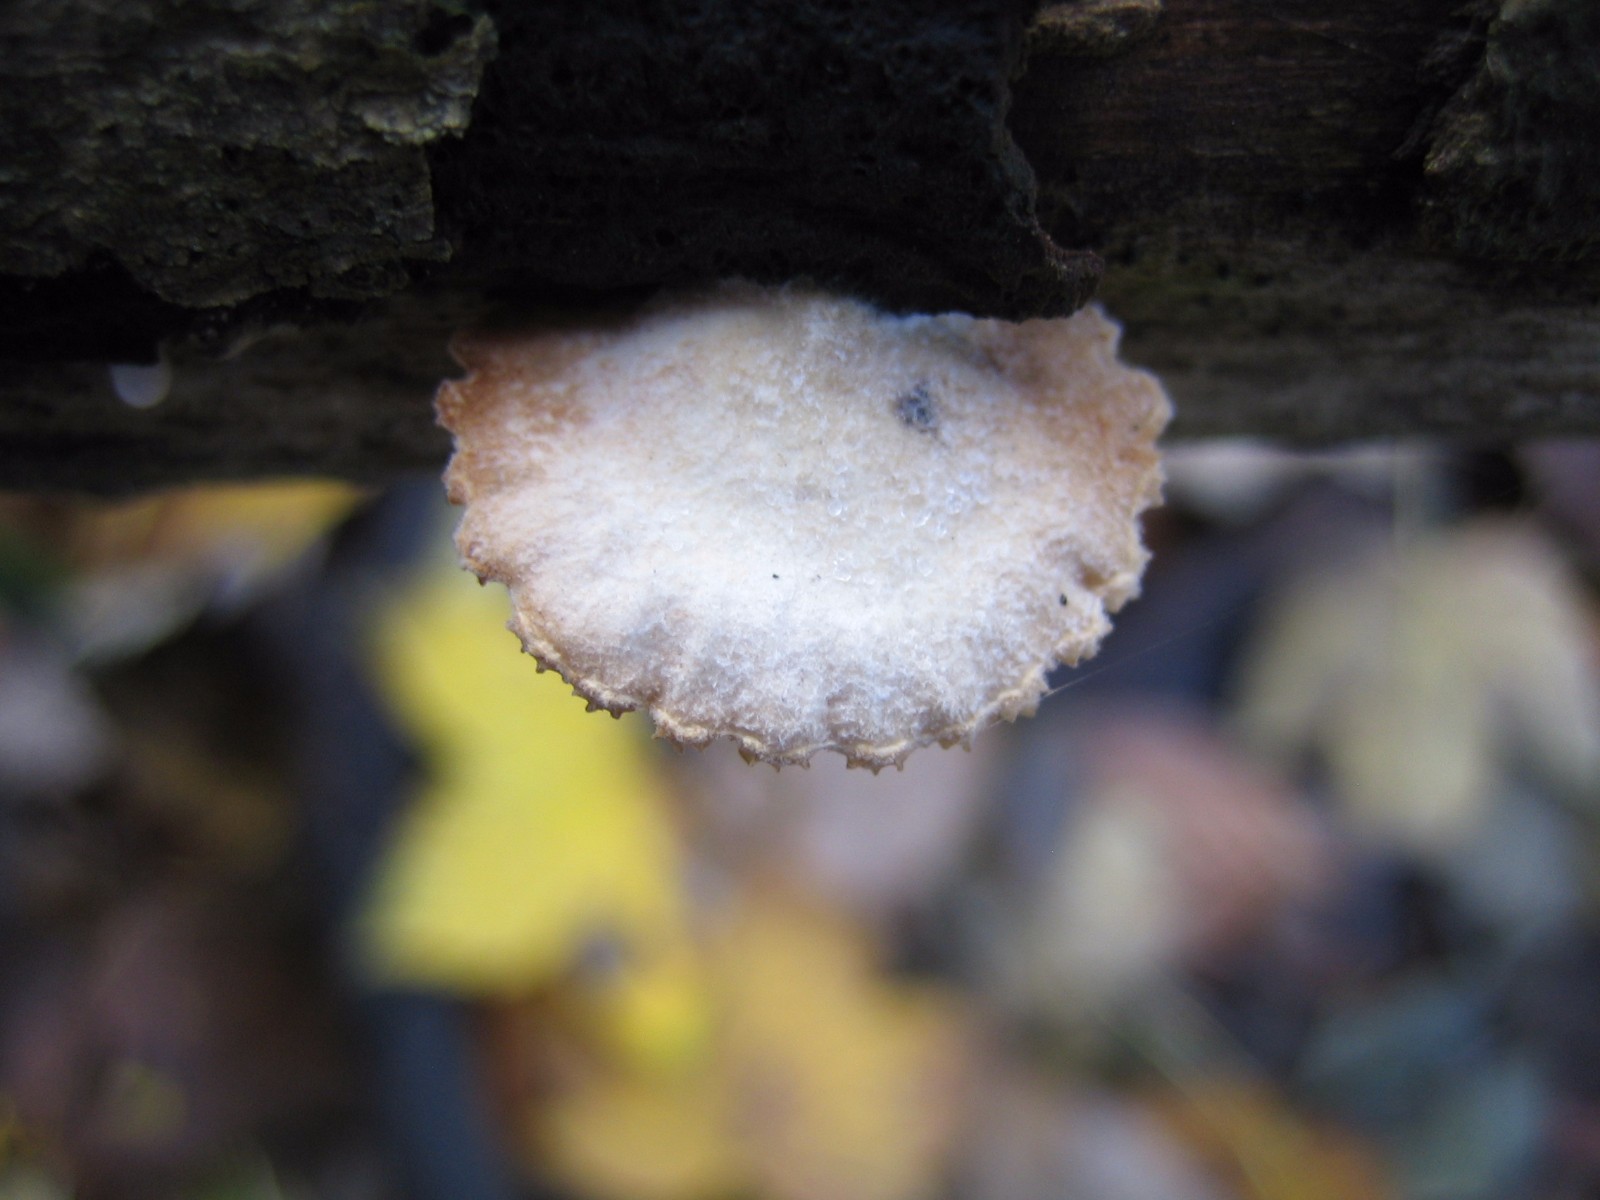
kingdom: Fungi
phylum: Basidiomycota
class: Agaricomycetes
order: Agaricales
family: Crepidotaceae
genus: Crepidotus
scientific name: Crepidotus
